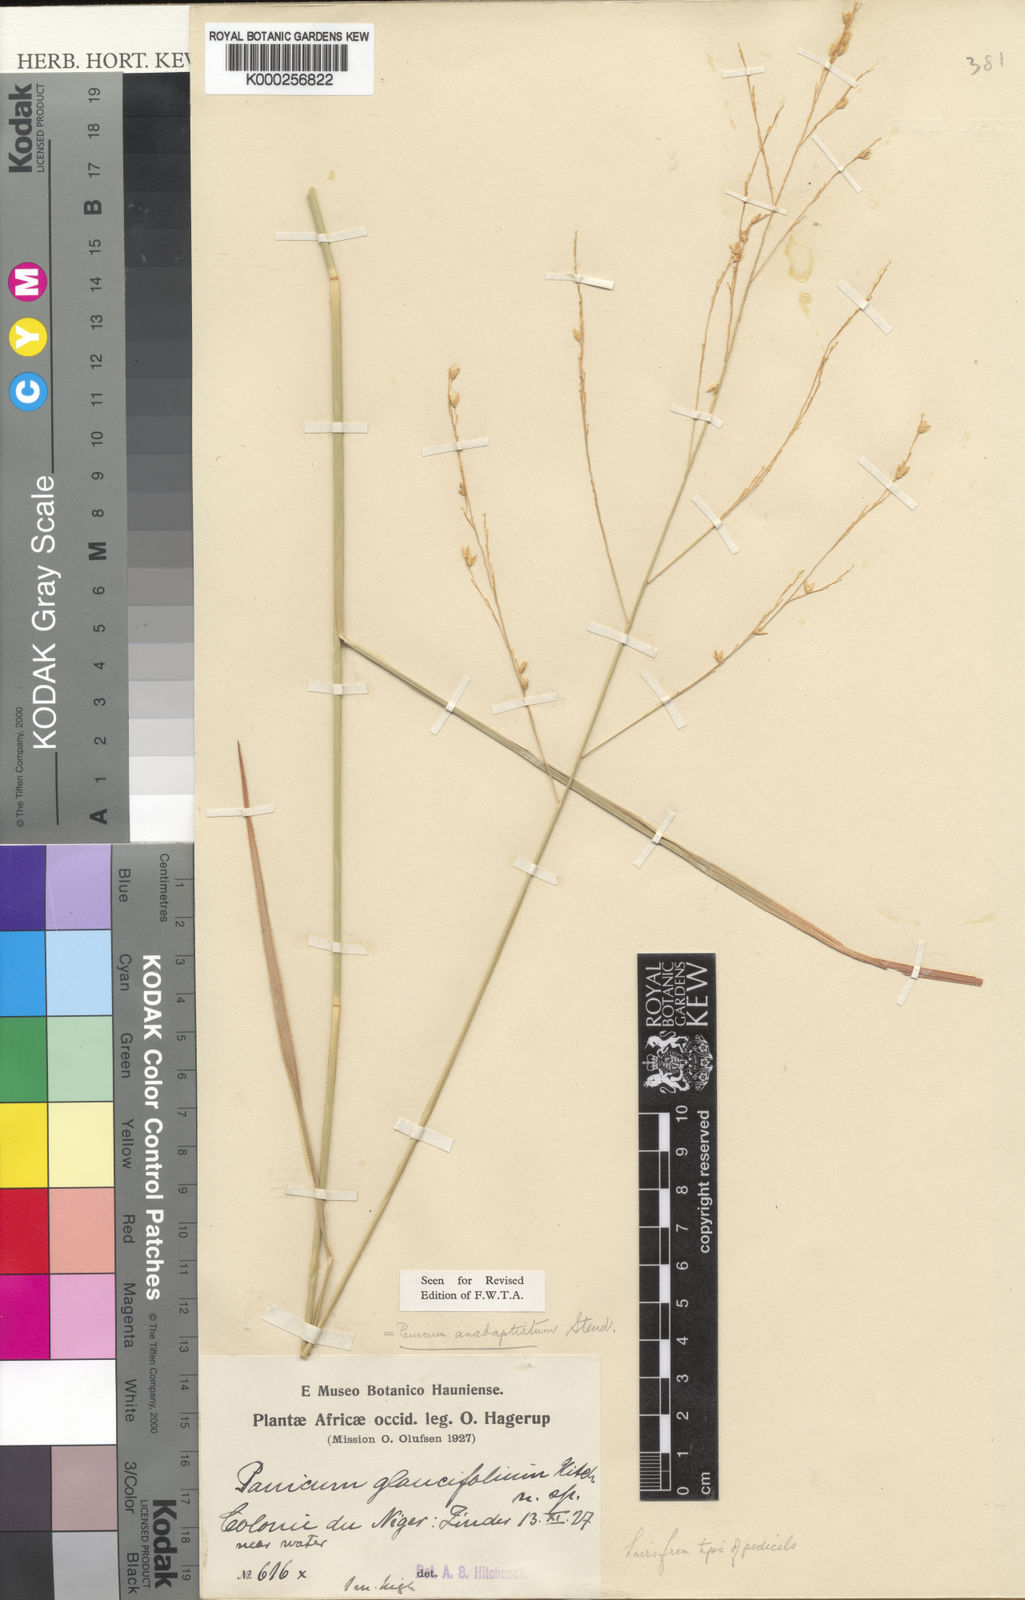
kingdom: Plantae
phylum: Tracheophyta
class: Liliopsida
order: Poales
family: Poaceae
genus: Panicum
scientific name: Panicum anabaptistum
